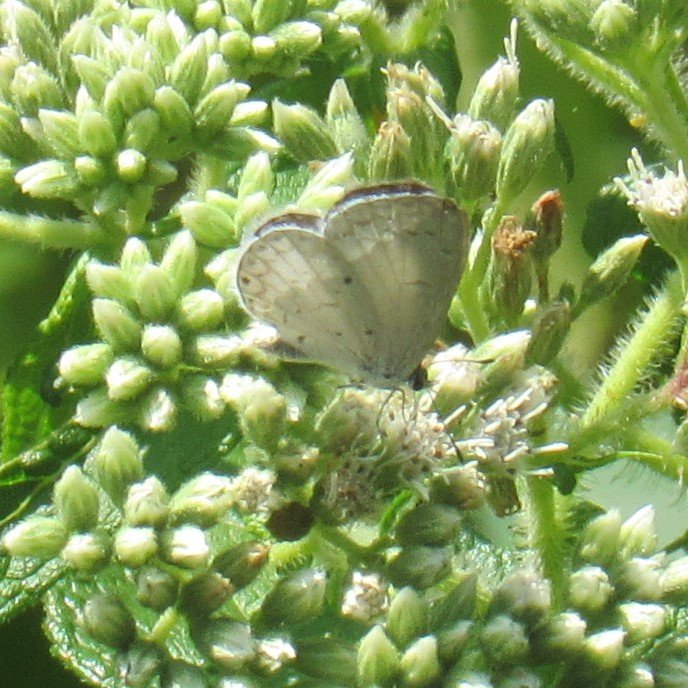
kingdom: Animalia
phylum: Arthropoda
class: Insecta
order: Lepidoptera
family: Lycaenidae
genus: Cyaniris
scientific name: Cyaniris neglecta
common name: Summer Azure
